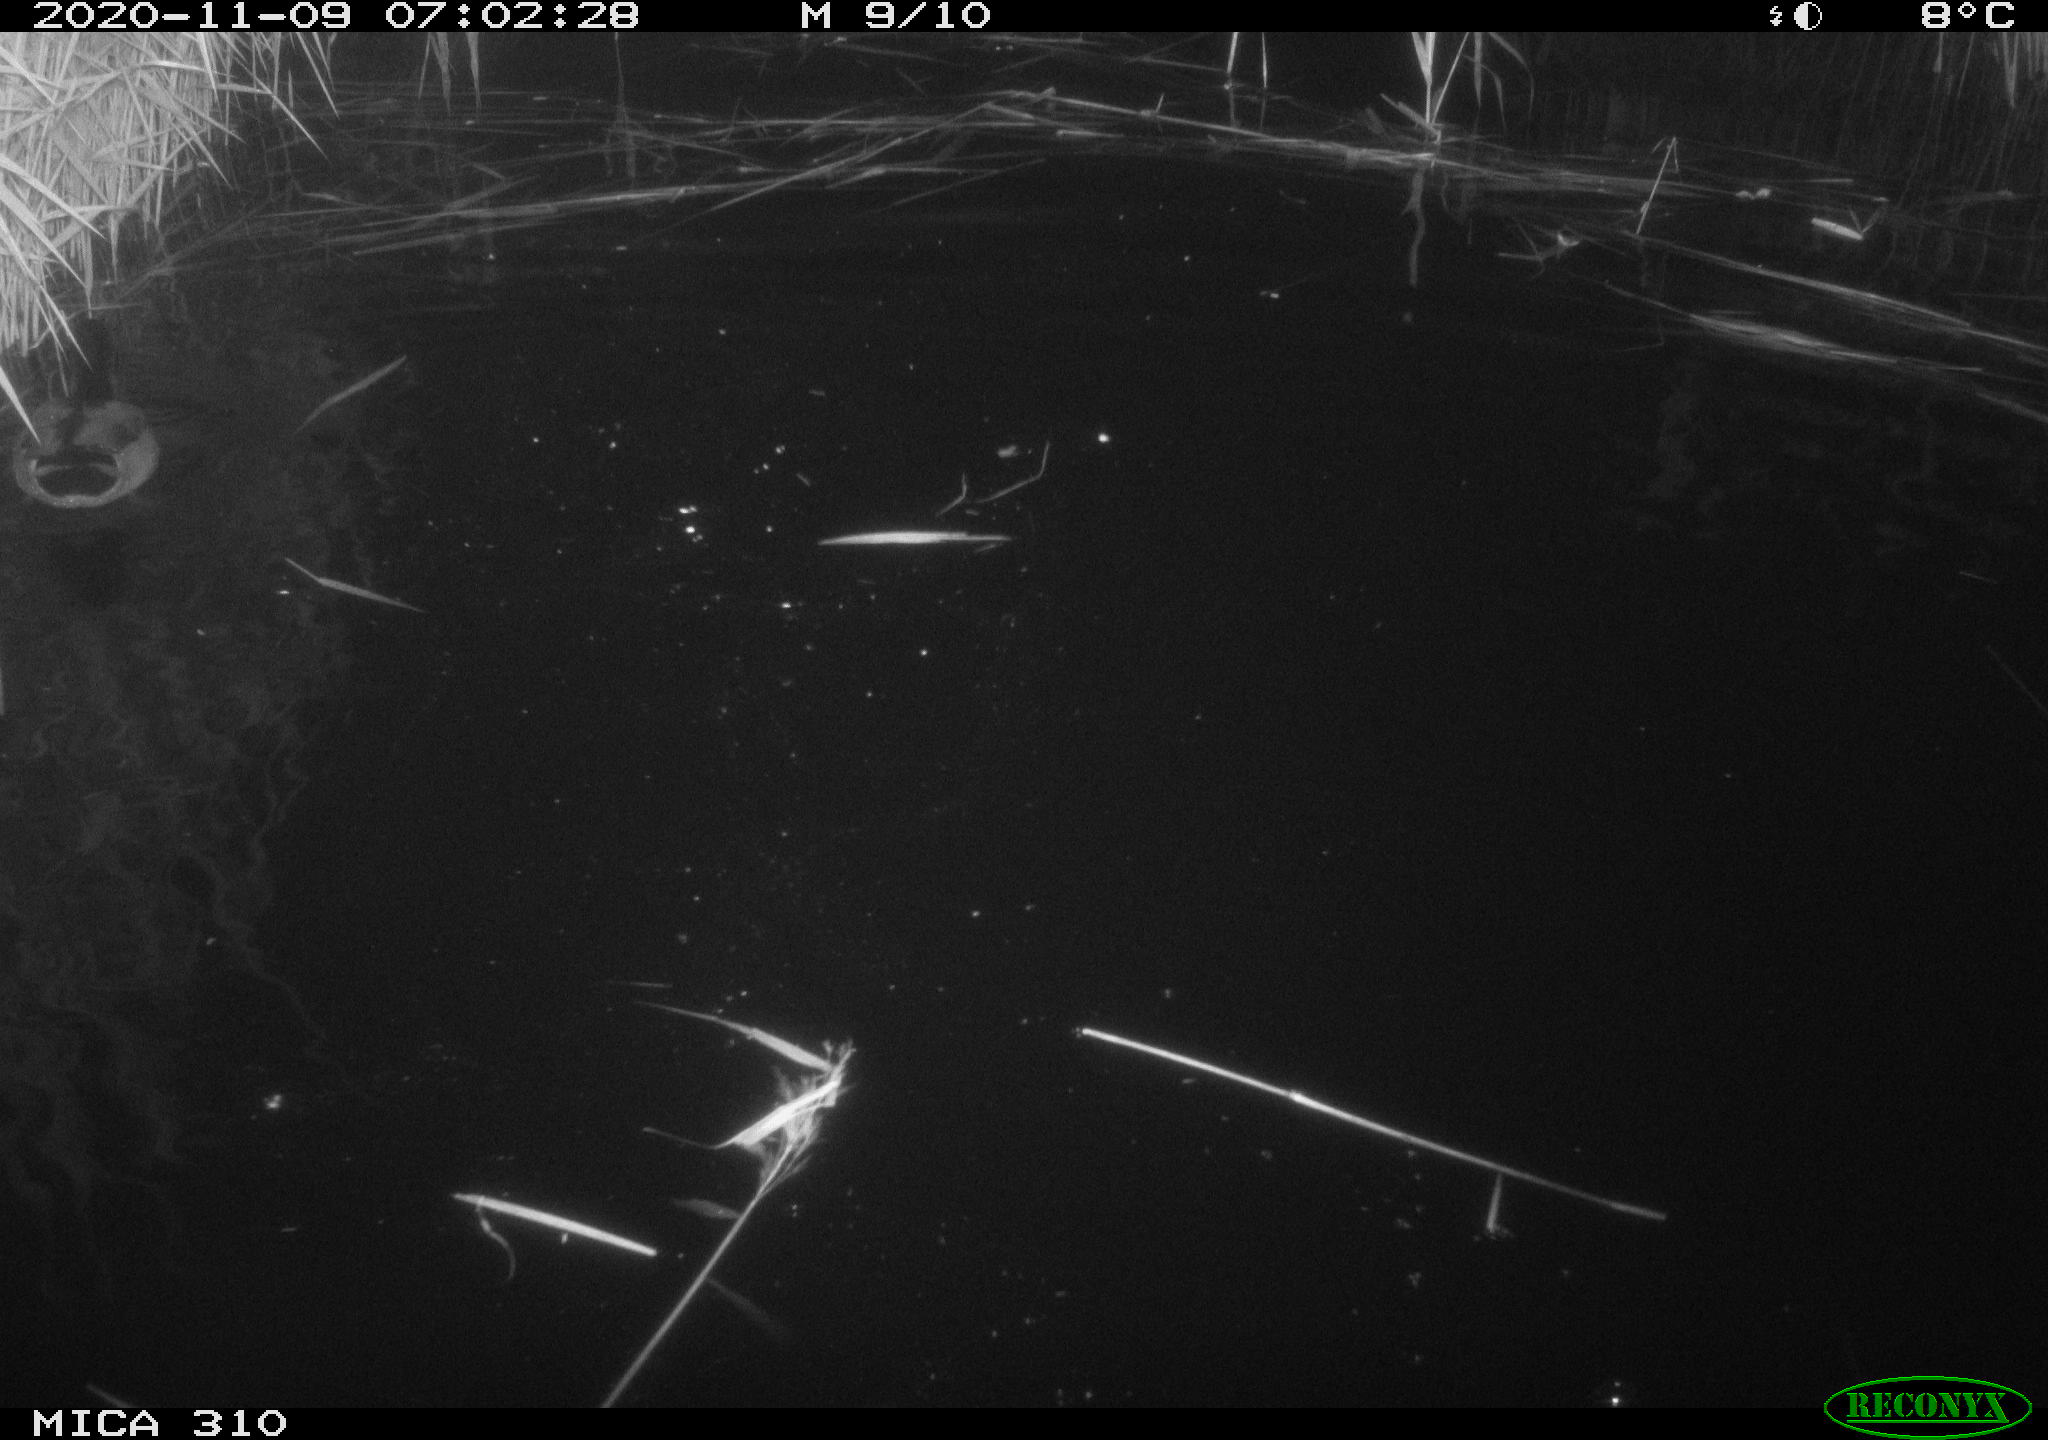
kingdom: Animalia
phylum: Chordata
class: Aves
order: Anseriformes
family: Anatidae
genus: Anas
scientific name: Anas platyrhynchos
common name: Mallard
